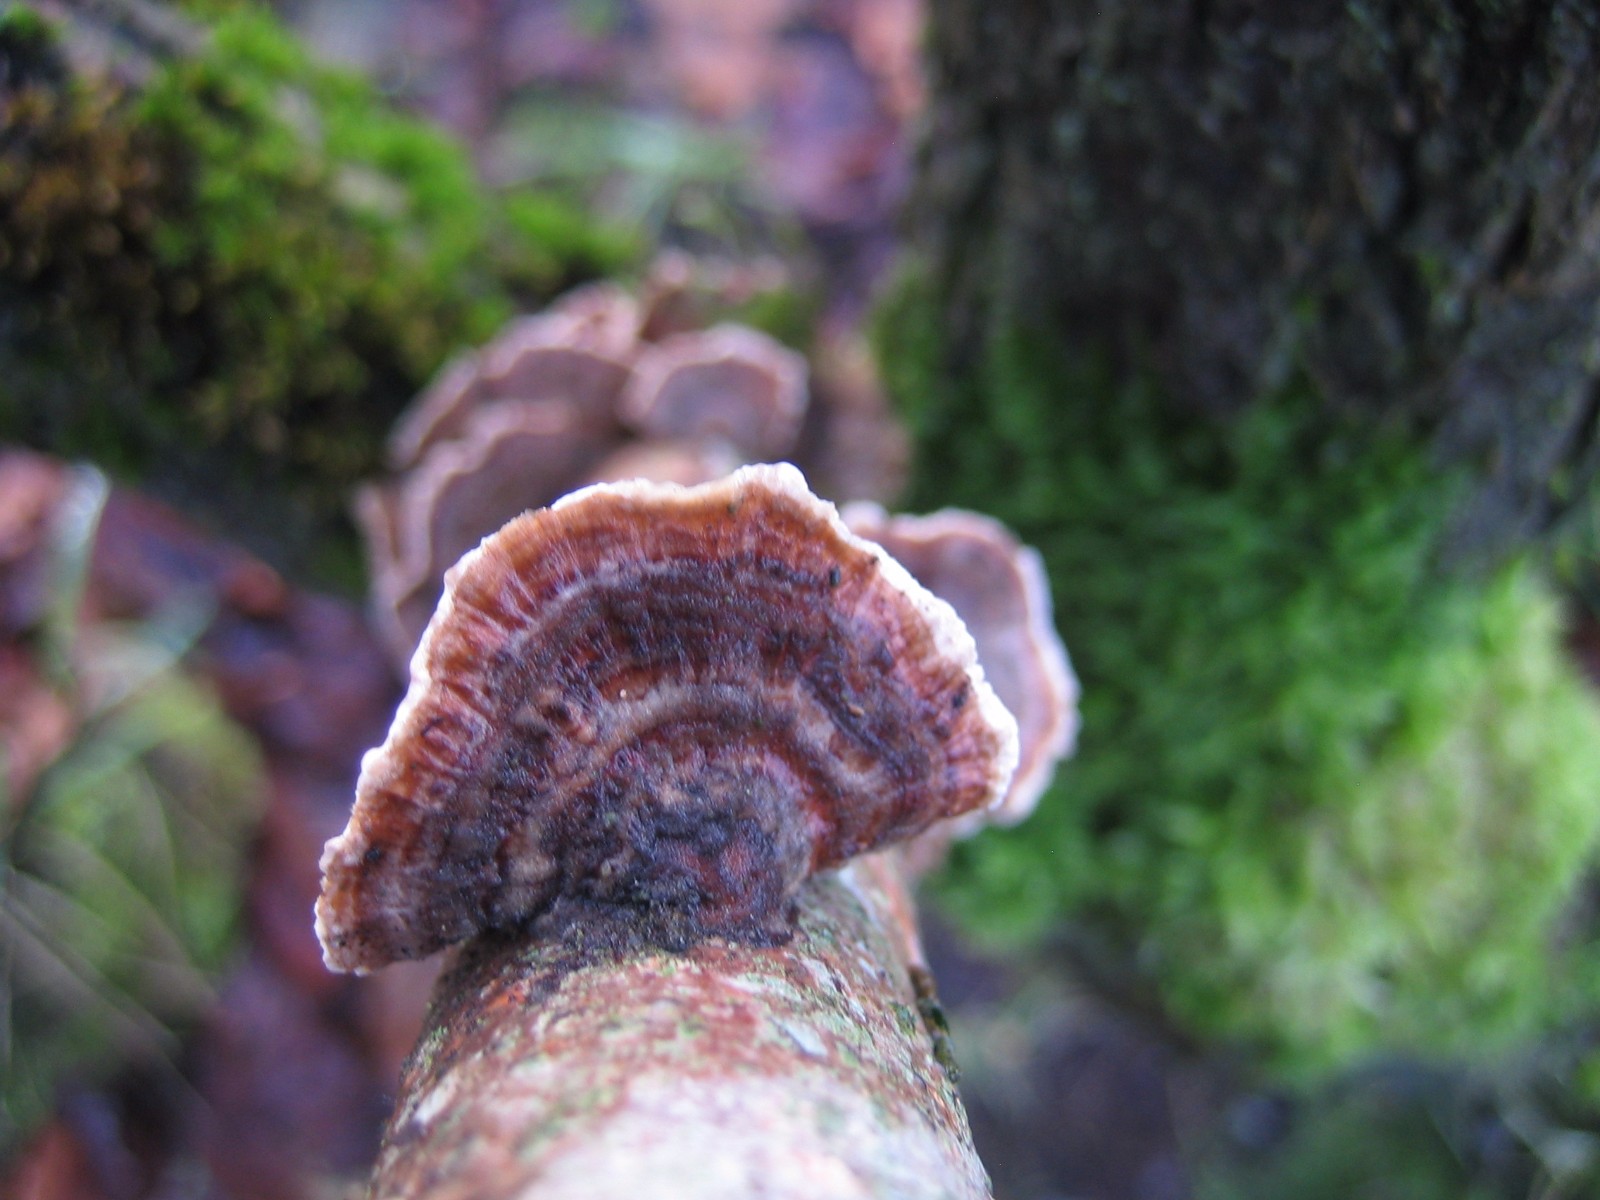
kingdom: Fungi
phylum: Basidiomycota
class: Agaricomycetes
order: Polyporales
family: Polyporaceae
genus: Trametes
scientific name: Trametes versicolor
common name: broget læderporesvamp
